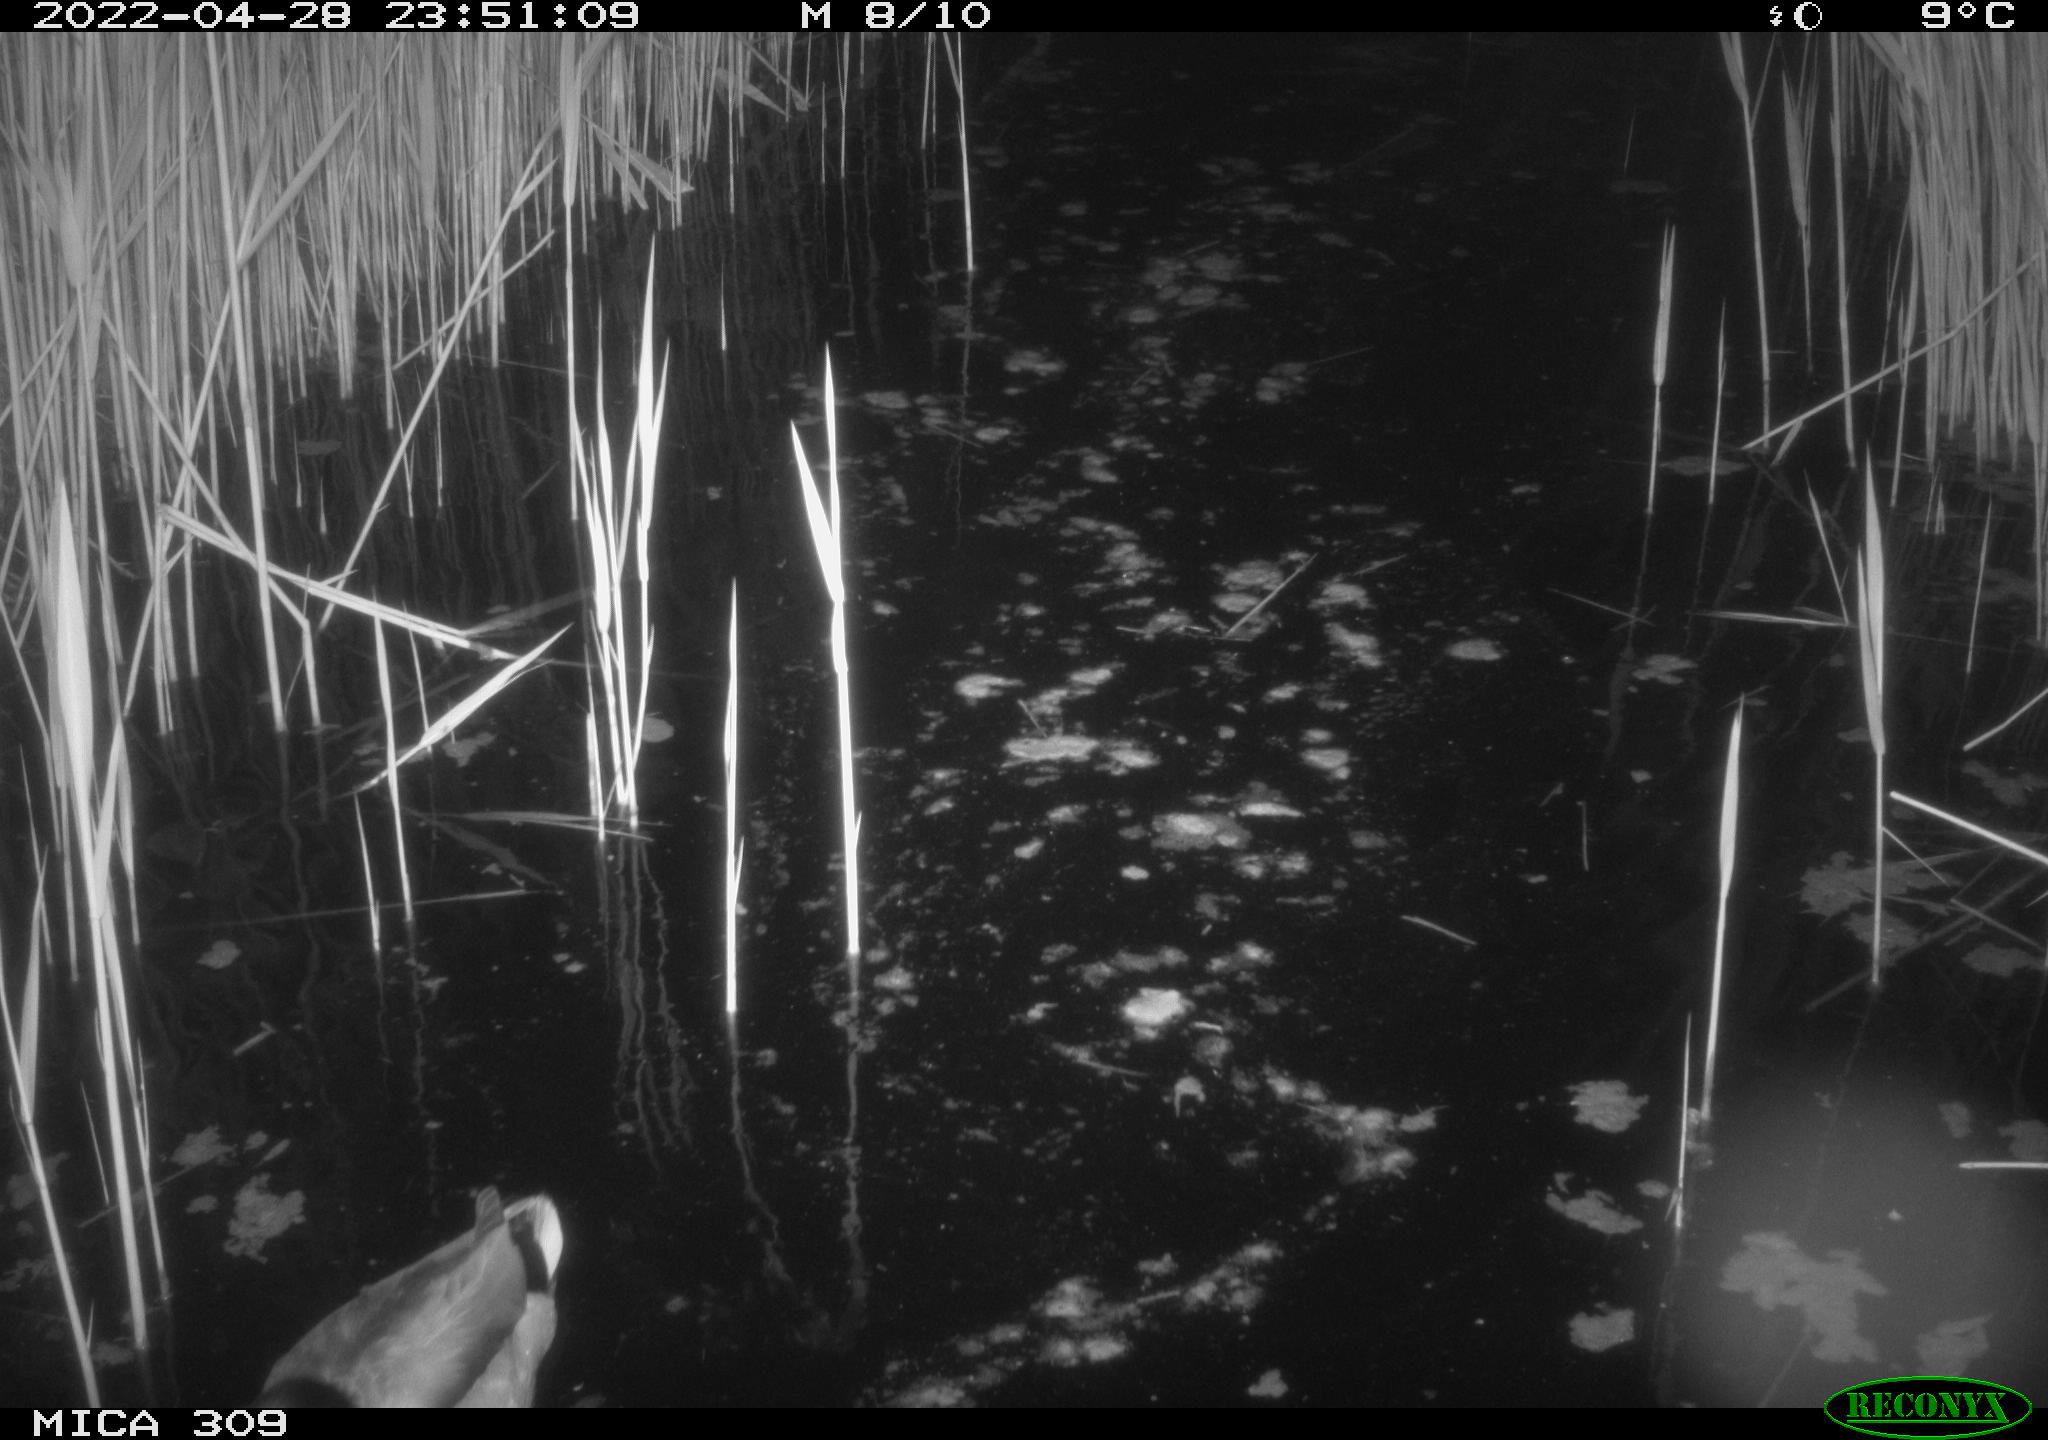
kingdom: Animalia
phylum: Chordata
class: Aves
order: Gruiformes
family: Rallidae
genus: Gallinula
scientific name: Gallinula chloropus
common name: Common moorhen
